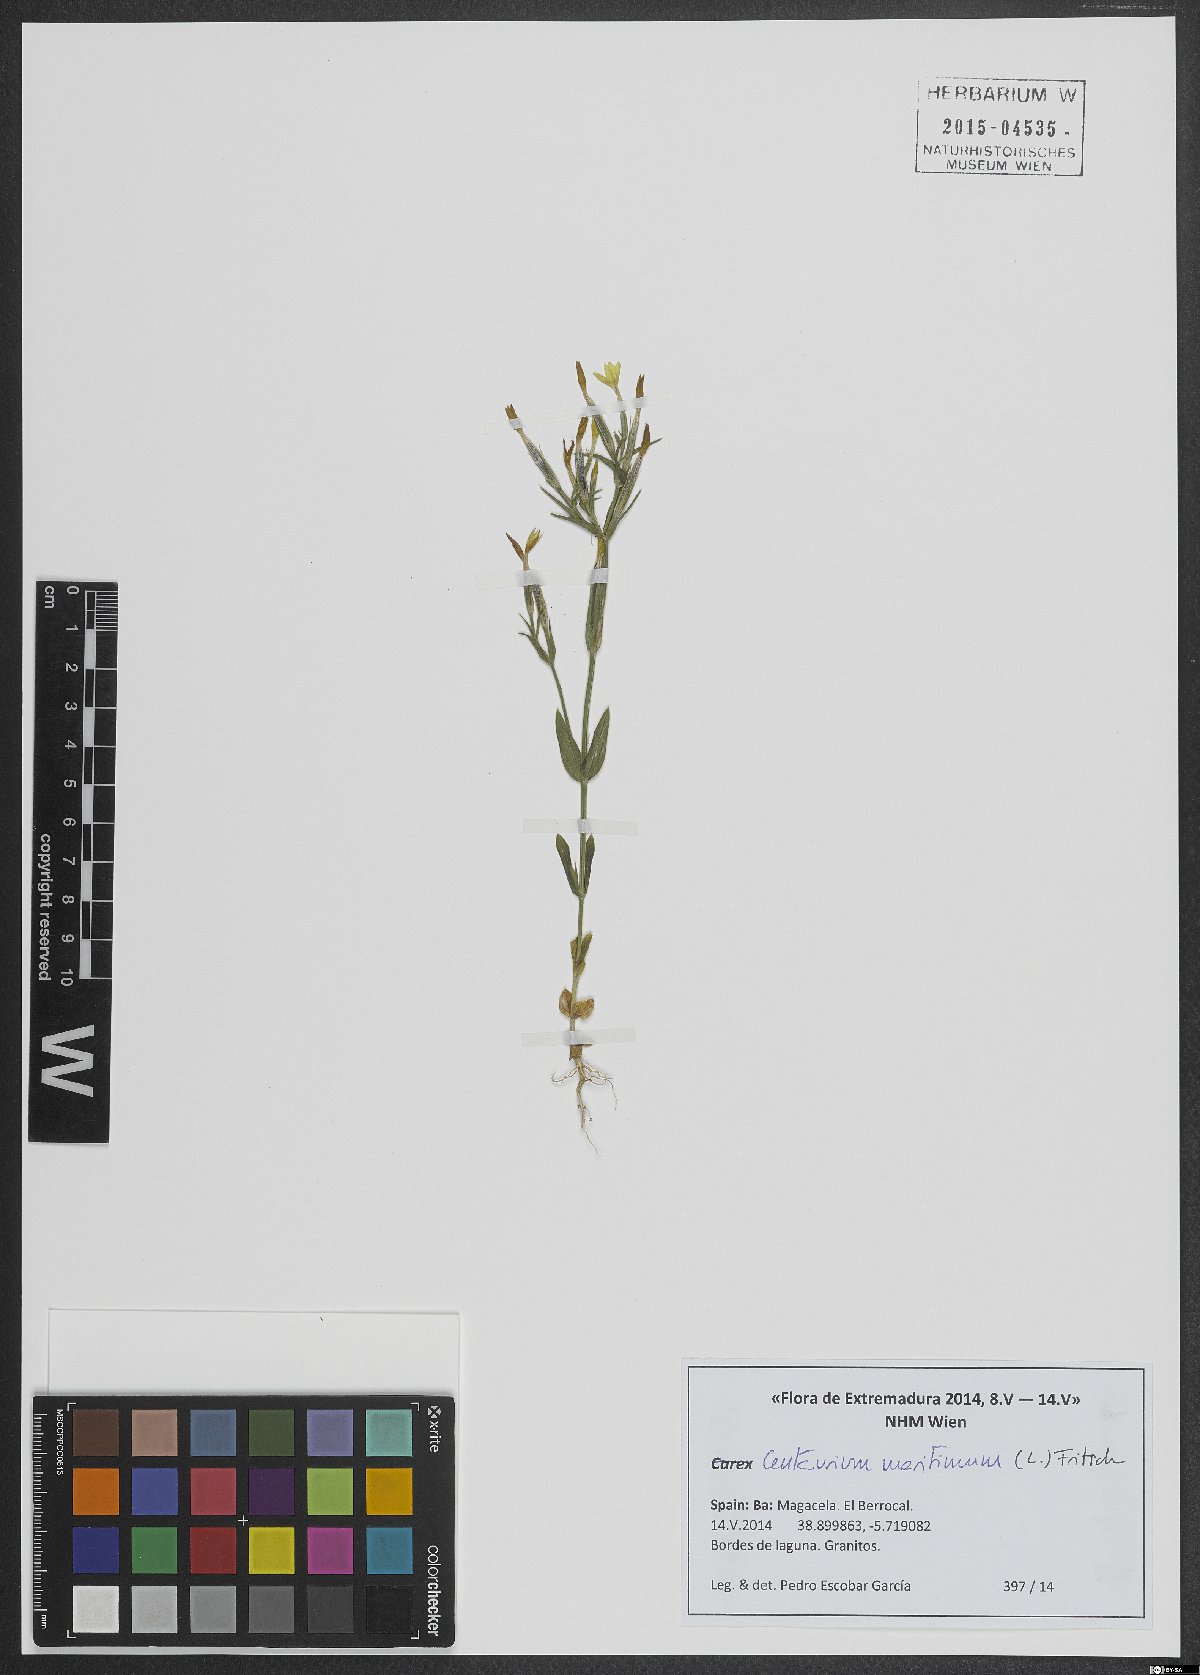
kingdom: Plantae
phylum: Tracheophyta
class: Magnoliopsida
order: Gentianales
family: Gentianaceae
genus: Centaurium
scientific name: Centaurium maritimum
